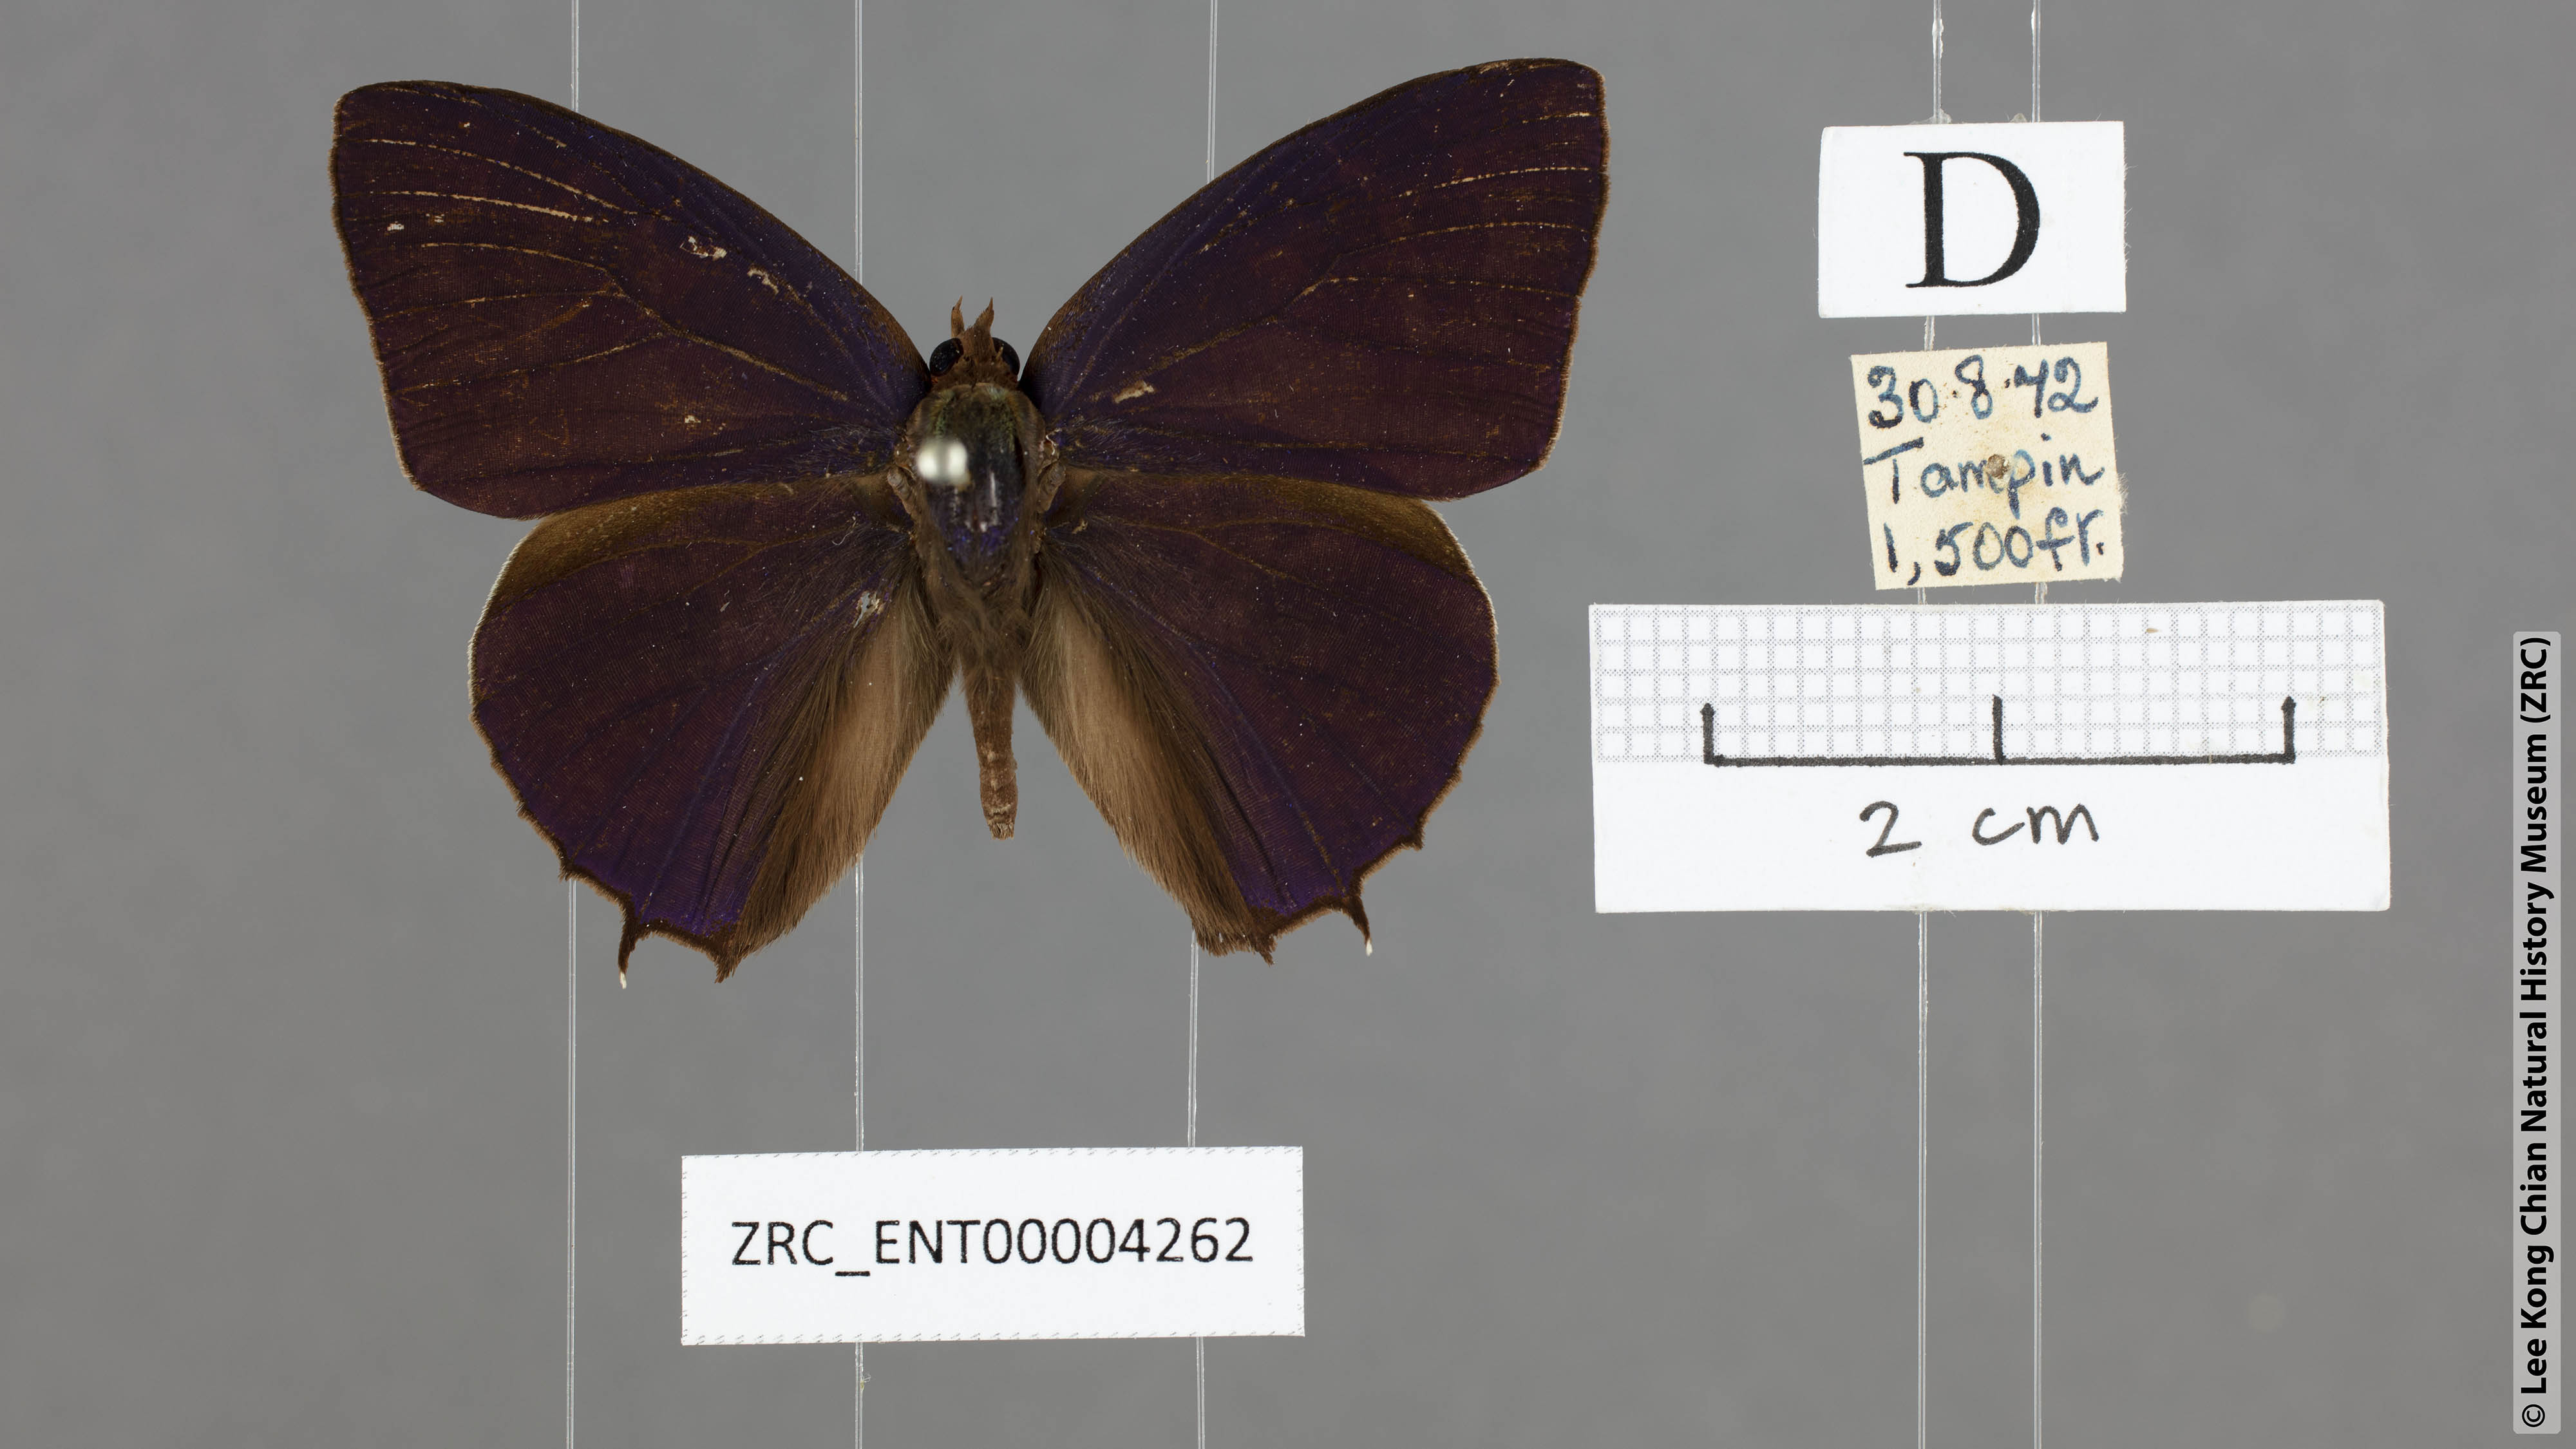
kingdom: Animalia
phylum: Arthropoda
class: Insecta
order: Lepidoptera
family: Lycaenidae
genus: Flos
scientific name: Flos
